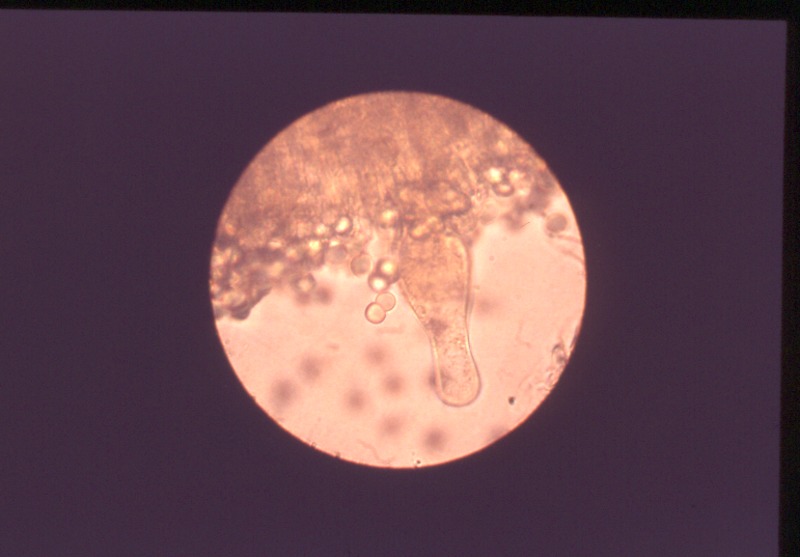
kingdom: Fungi
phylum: Basidiomycota
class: Agaricomycetes
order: Agaricales
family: Physalacriaceae
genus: Oudemansiella
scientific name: Oudemansiella melanotricha
